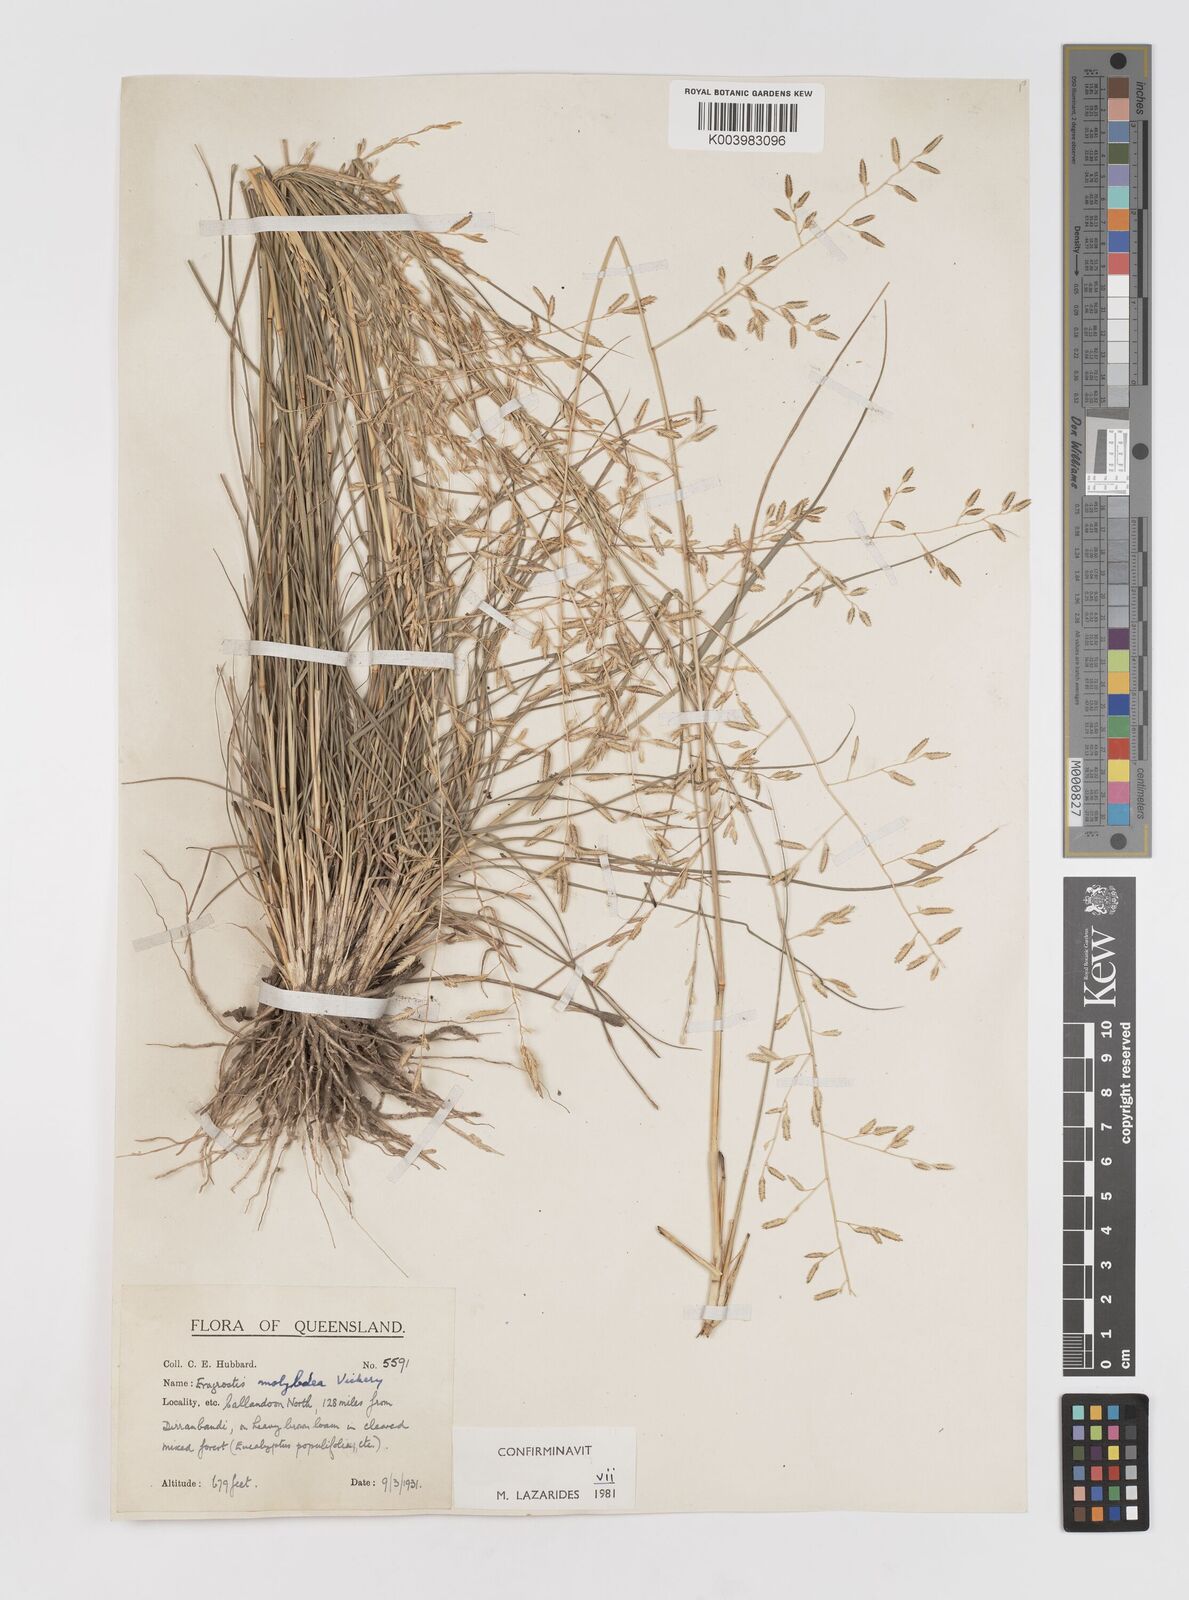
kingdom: Plantae
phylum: Tracheophyta
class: Liliopsida
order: Poales
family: Poaceae
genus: Eragrostis
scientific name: Eragrostis leptostachya
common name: Australian lovegrass
